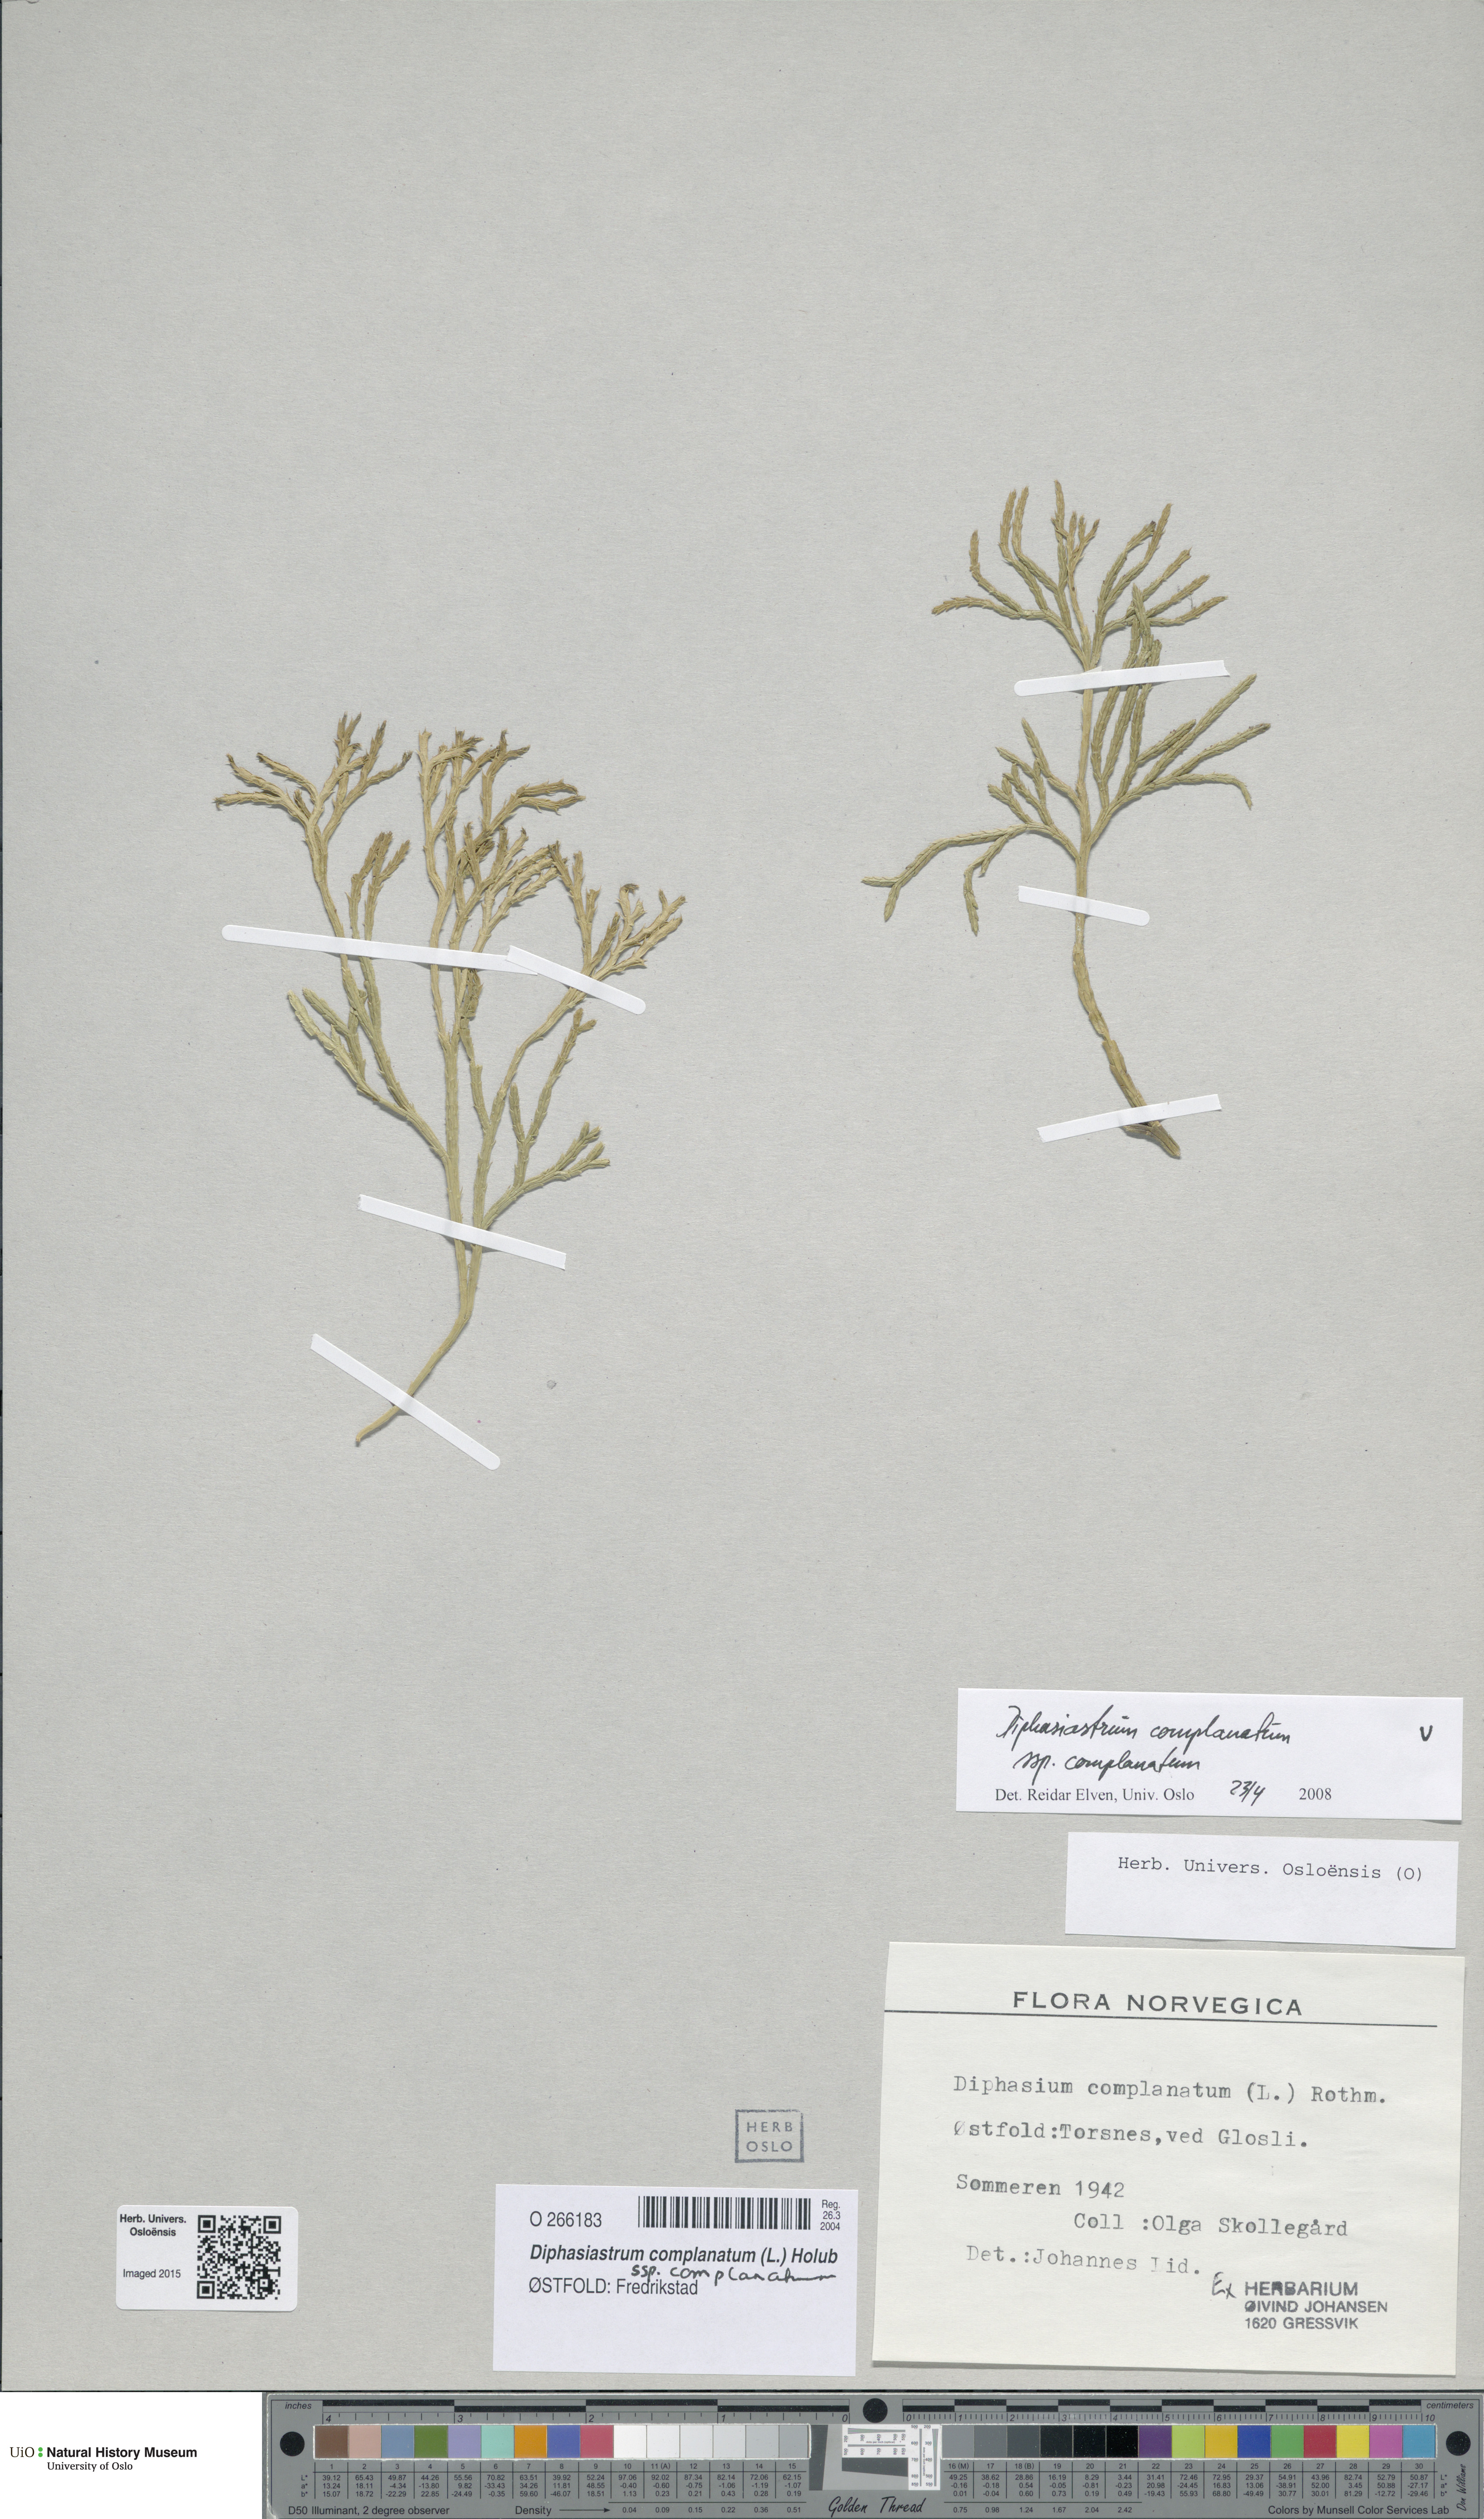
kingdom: Plantae
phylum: Tracheophyta
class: Lycopodiopsida
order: Lycopodiales
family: Lycopodiaceae
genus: Diphasiastrum
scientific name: Diphasiastrum complanatum
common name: Northern running-pine
